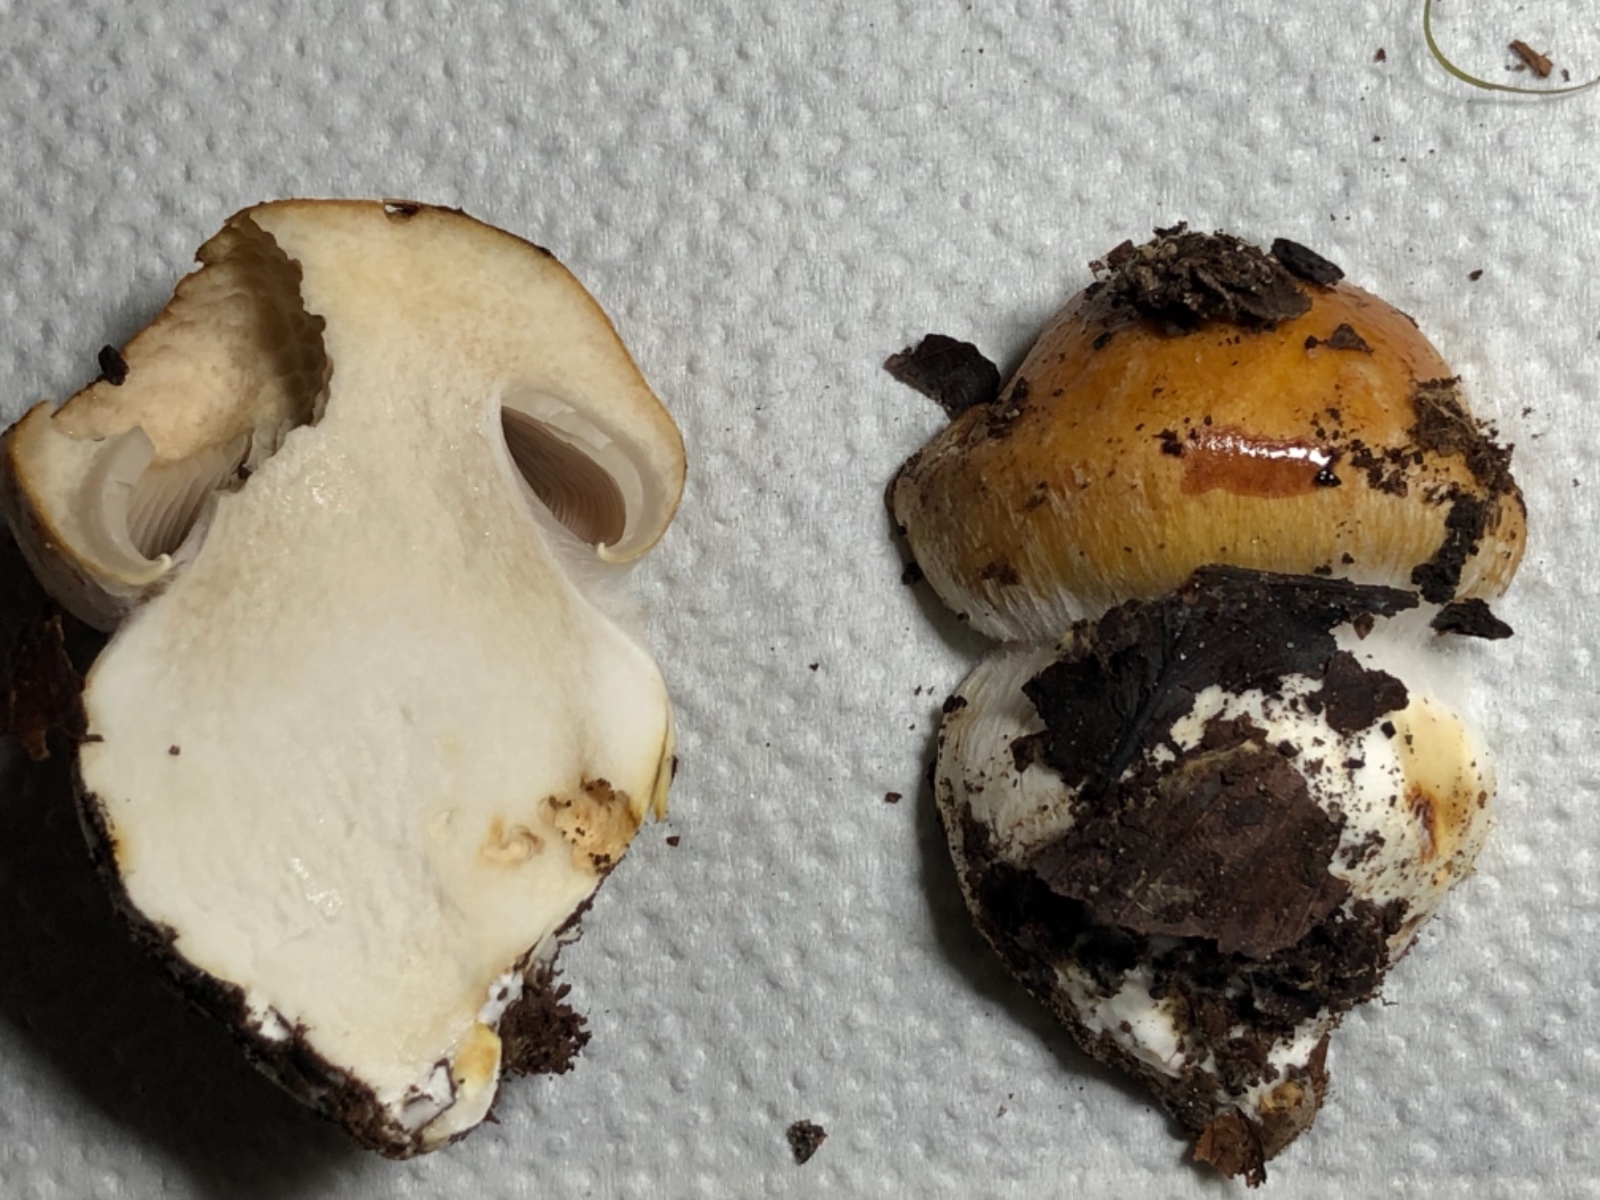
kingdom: Fungi
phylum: Basidiomycota
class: Agaricomycetes
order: Agaricales
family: Cortinariaceae
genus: Phlegmacium
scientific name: Phlegmacium subdecolorans
